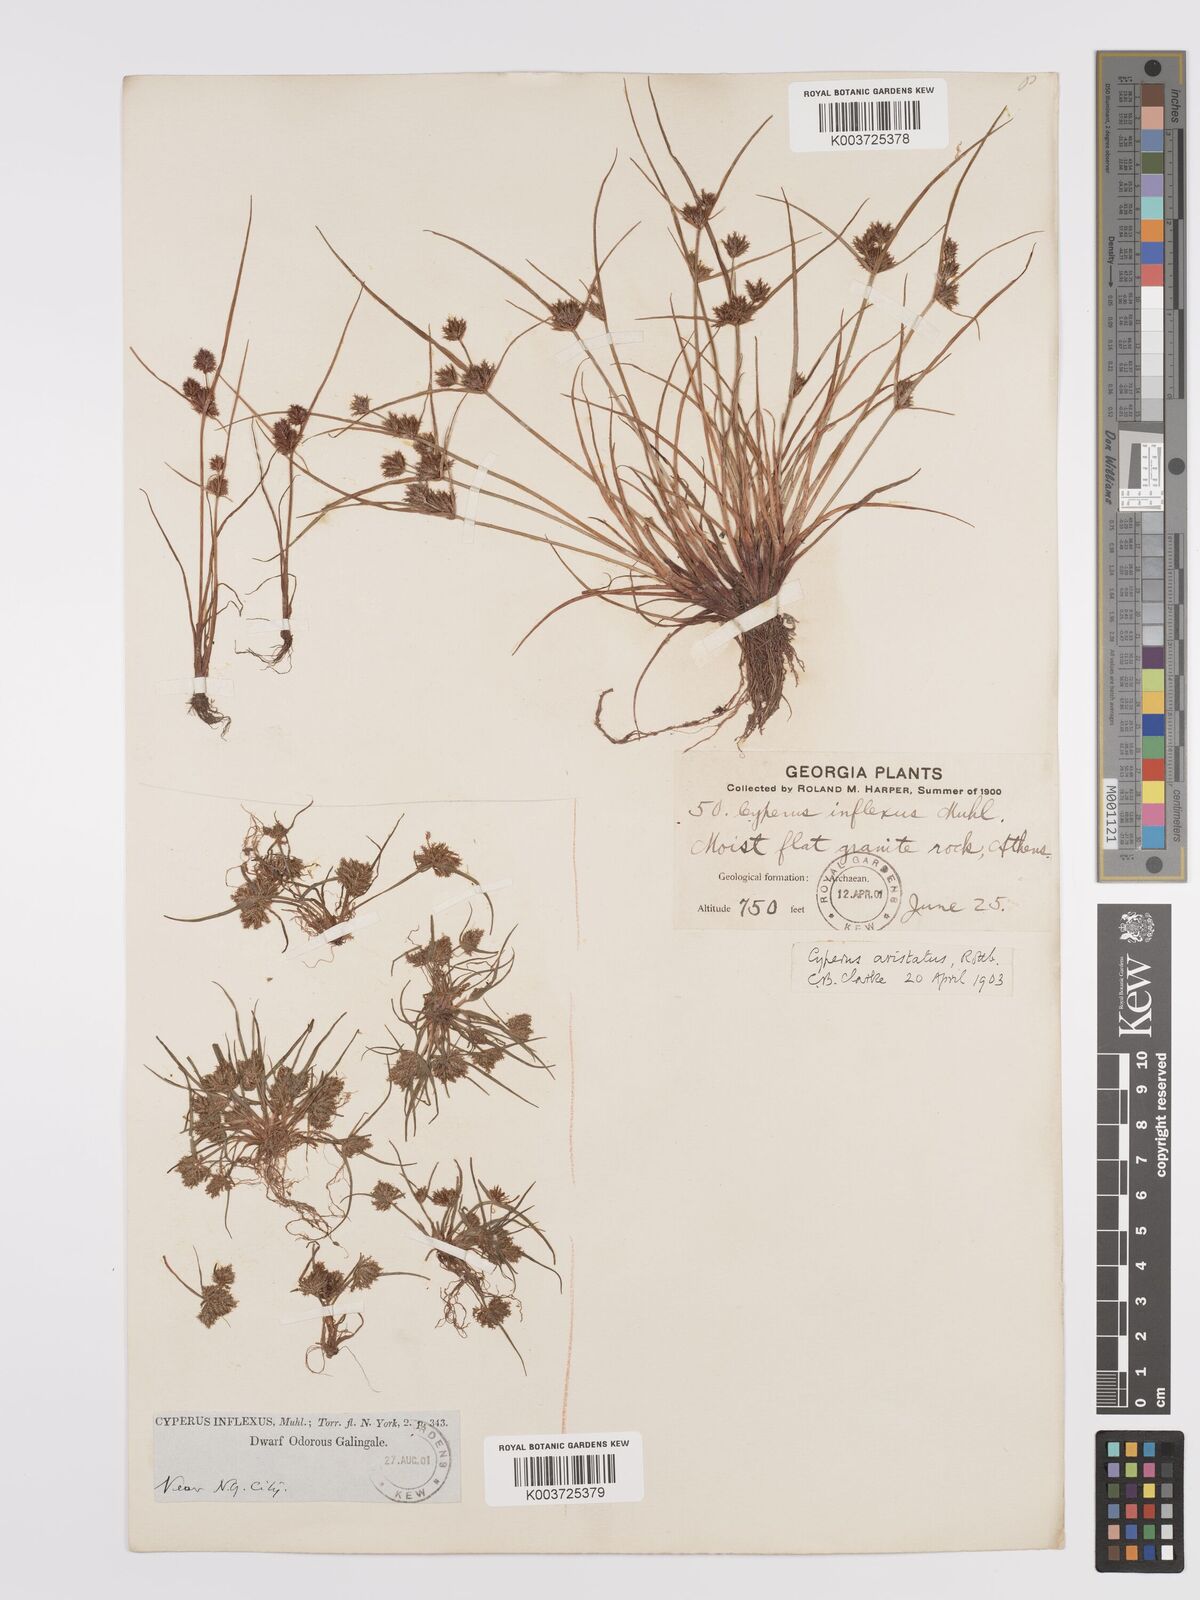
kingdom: Plantae
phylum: Tracheophyta
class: Liliopsida
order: Poales
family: Cyperaceae
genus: Cyperus
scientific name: Cyperus squarrosus
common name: Awned cyperus
